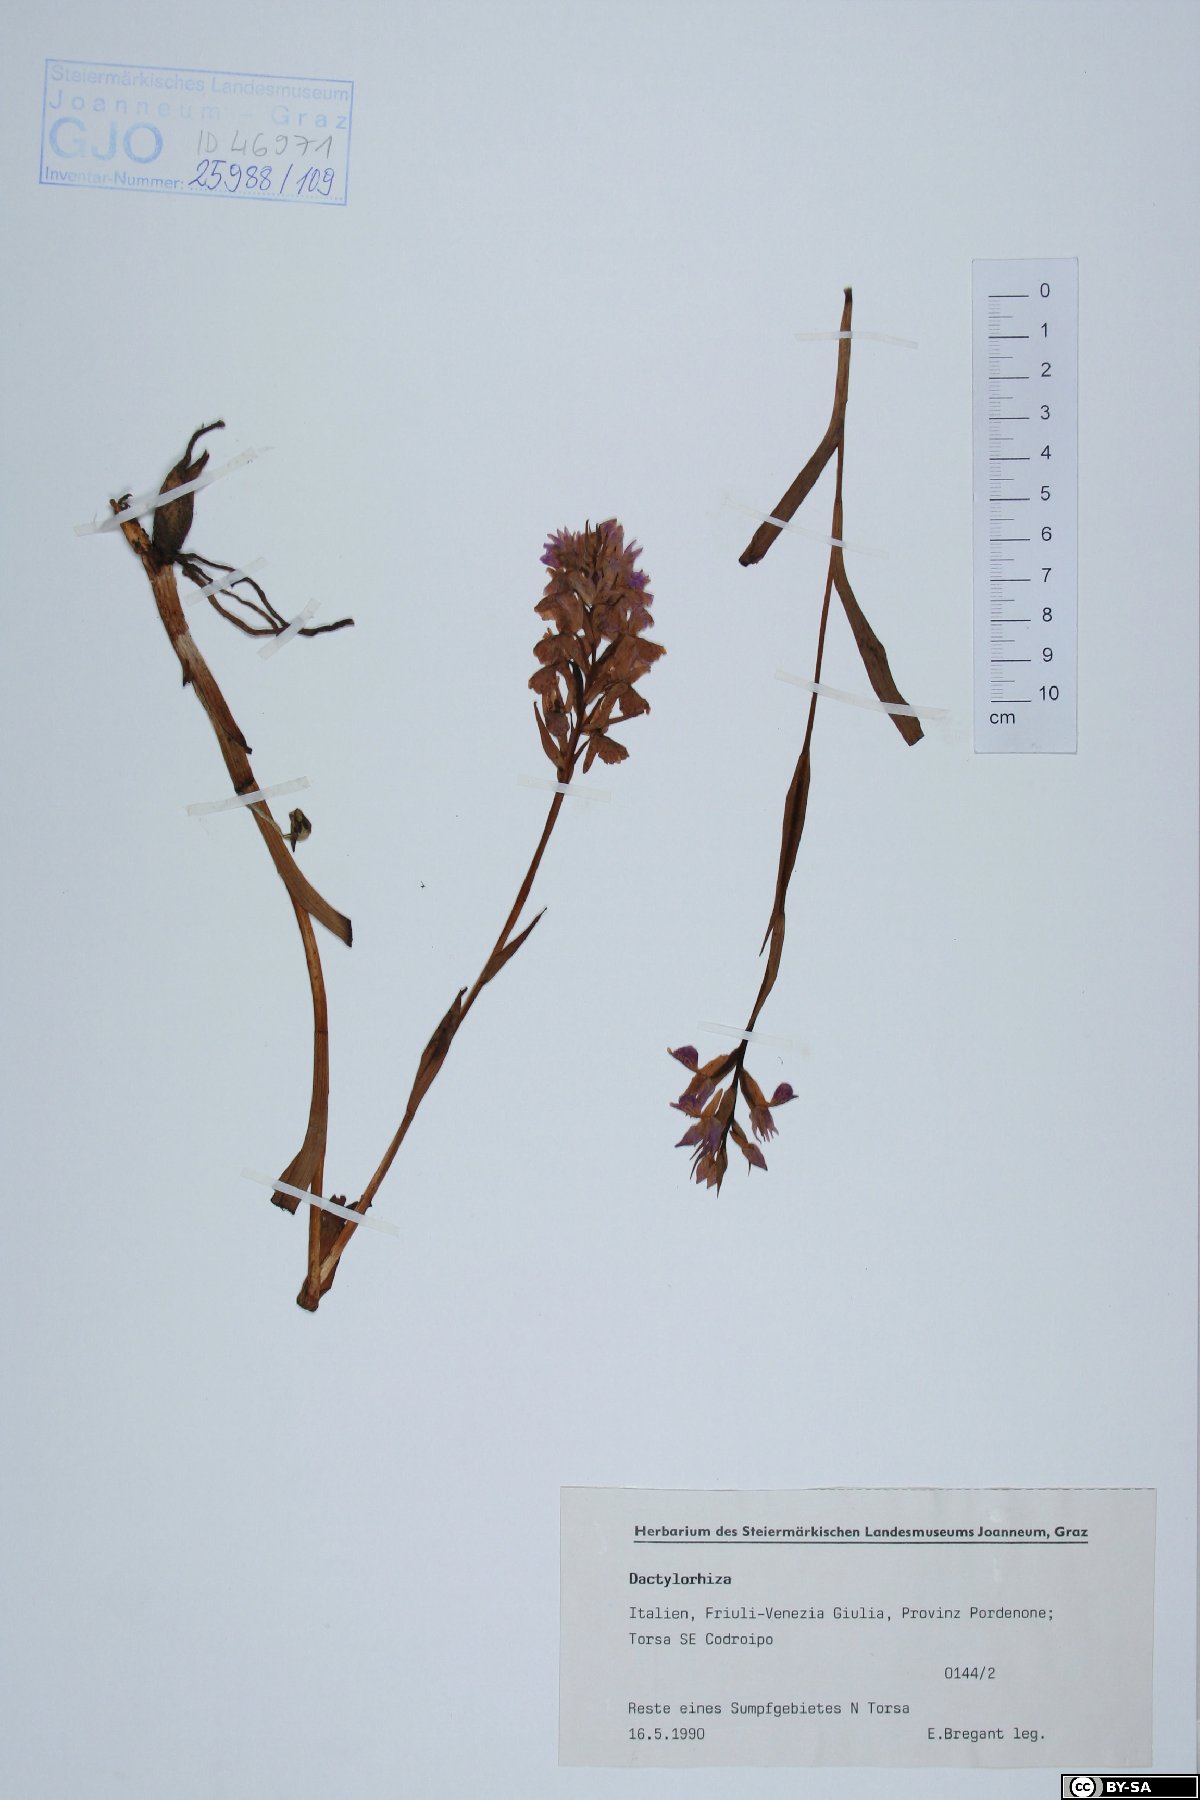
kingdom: Plantae
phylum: Tracheophyta
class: Liliopsida
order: Asparagales
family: Orchidaceae
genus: Dactylorhiza
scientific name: Dactylorhiza
